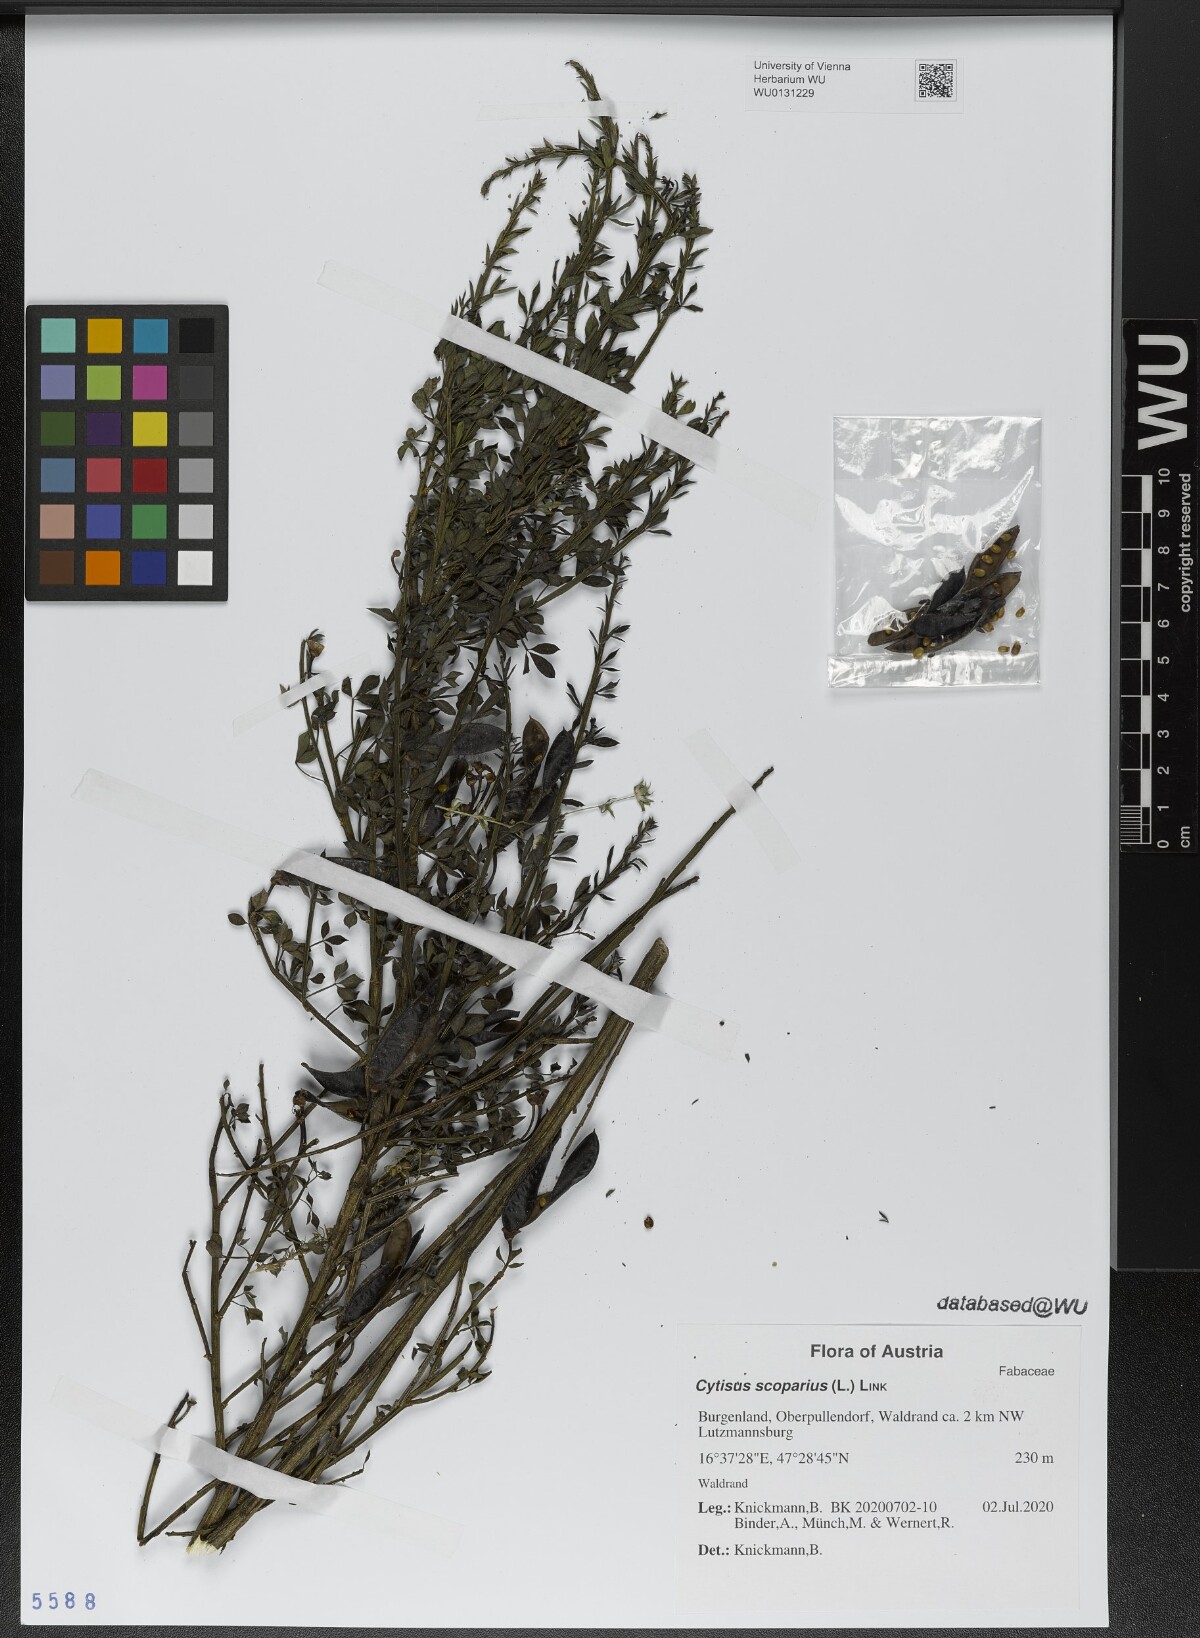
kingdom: Plantae
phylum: Tracheophyta
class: Magnoliopsida
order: Fabales
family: Fabaceae
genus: Cytisus
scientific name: Cytisus scoparius
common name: Scotch broom
